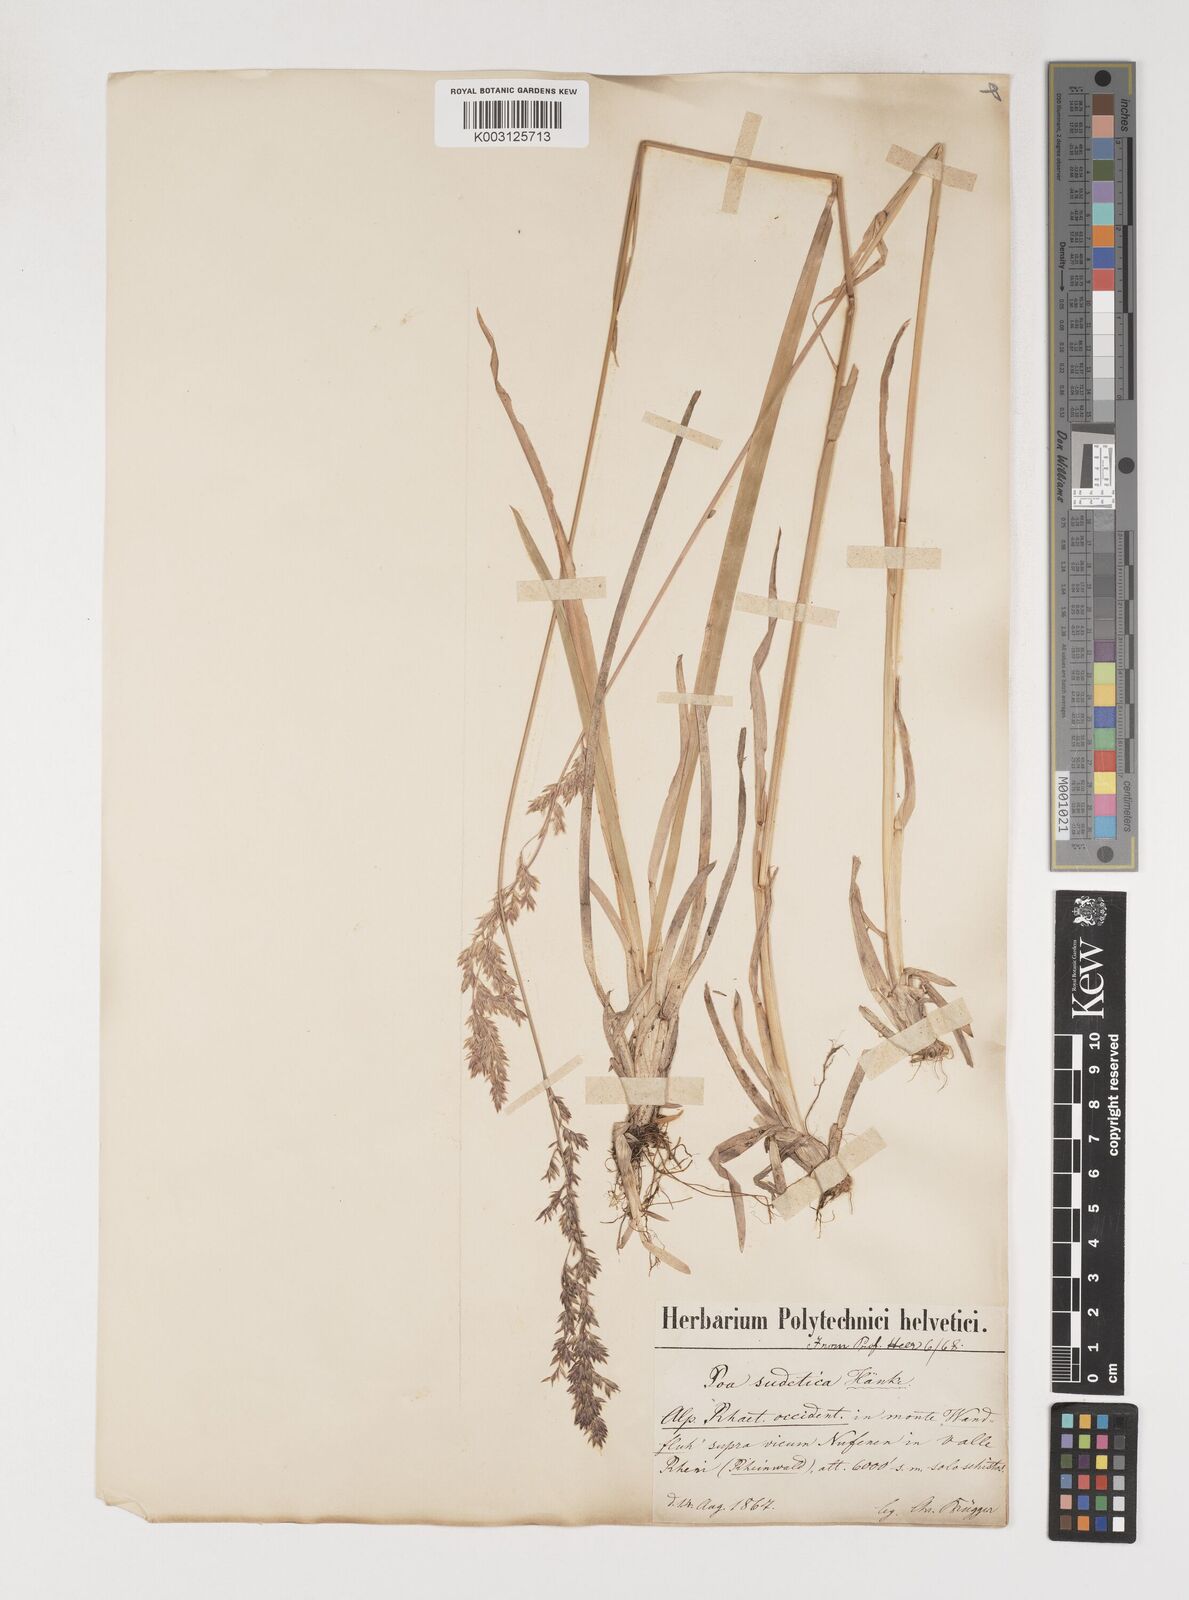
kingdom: Plantae
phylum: Tracheophyta
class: Liliopsida
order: Poales
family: Poaceae
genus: Poa
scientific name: Poa chaixii
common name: Broad-leaved meadow-grass
